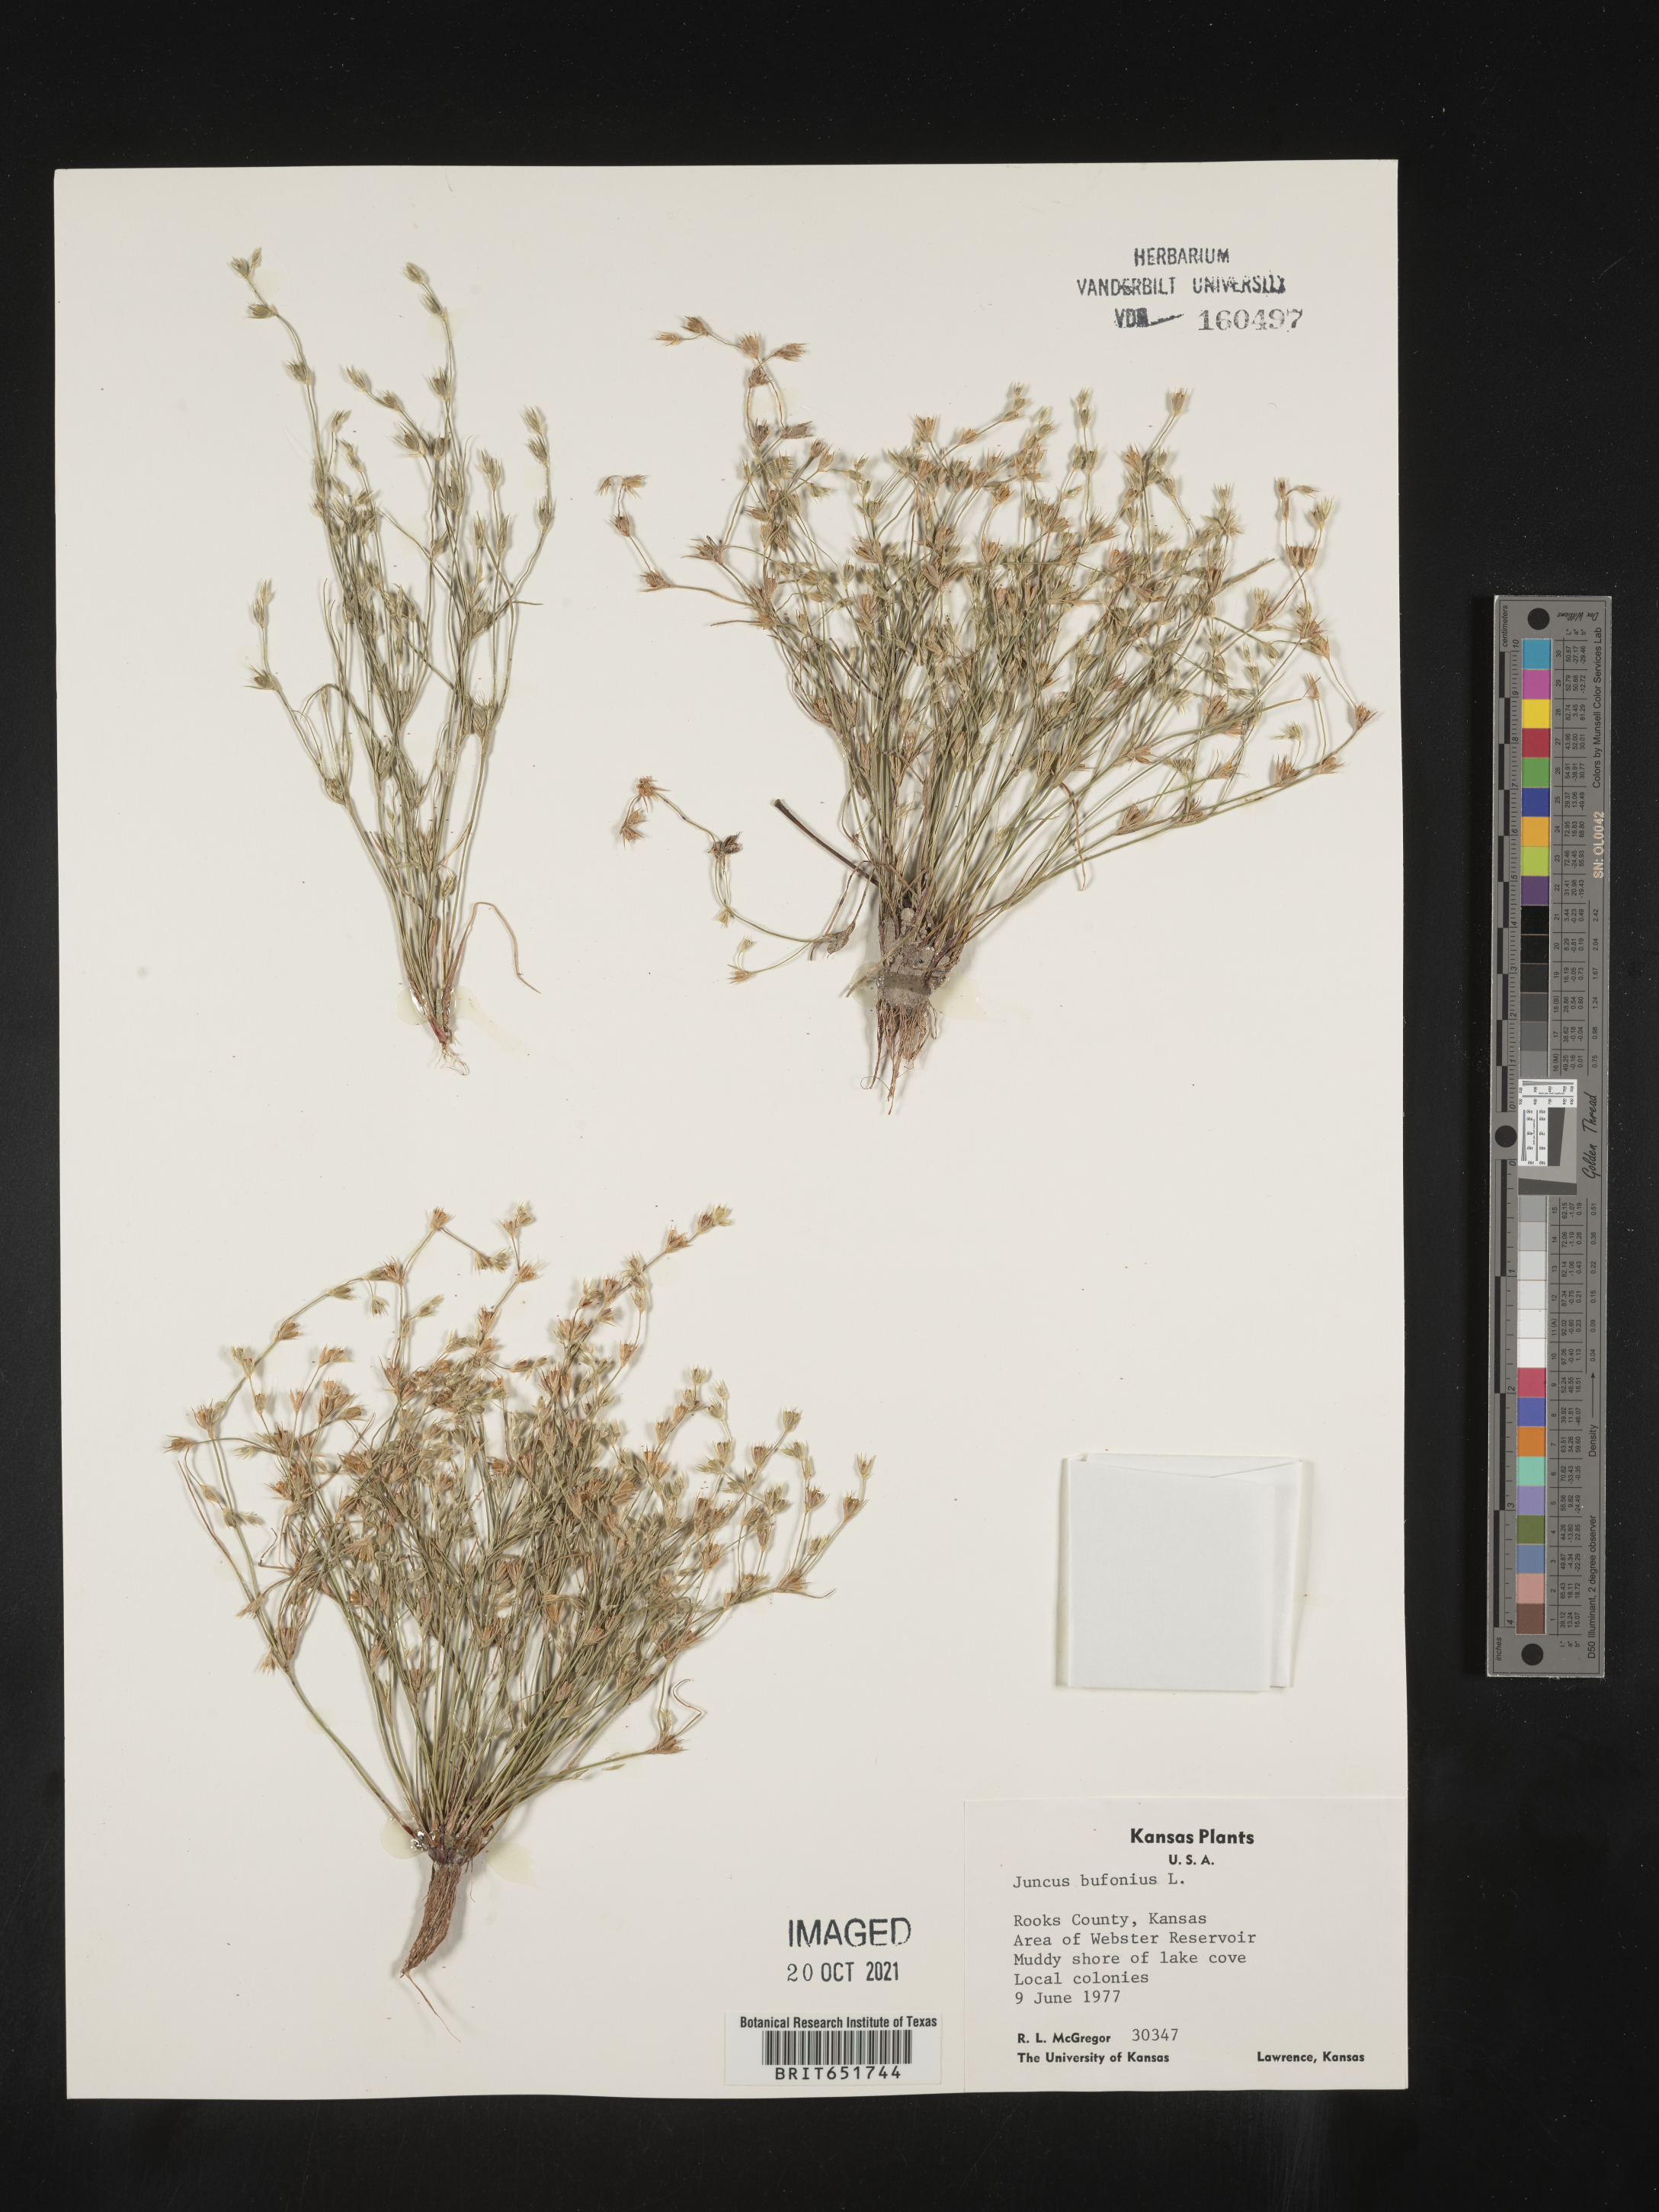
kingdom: Plantae
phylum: Tracheophyta
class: Liliopsida
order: Poales
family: Juncaceae
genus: Juncus
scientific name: Juncus bufonius
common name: Toad rush
